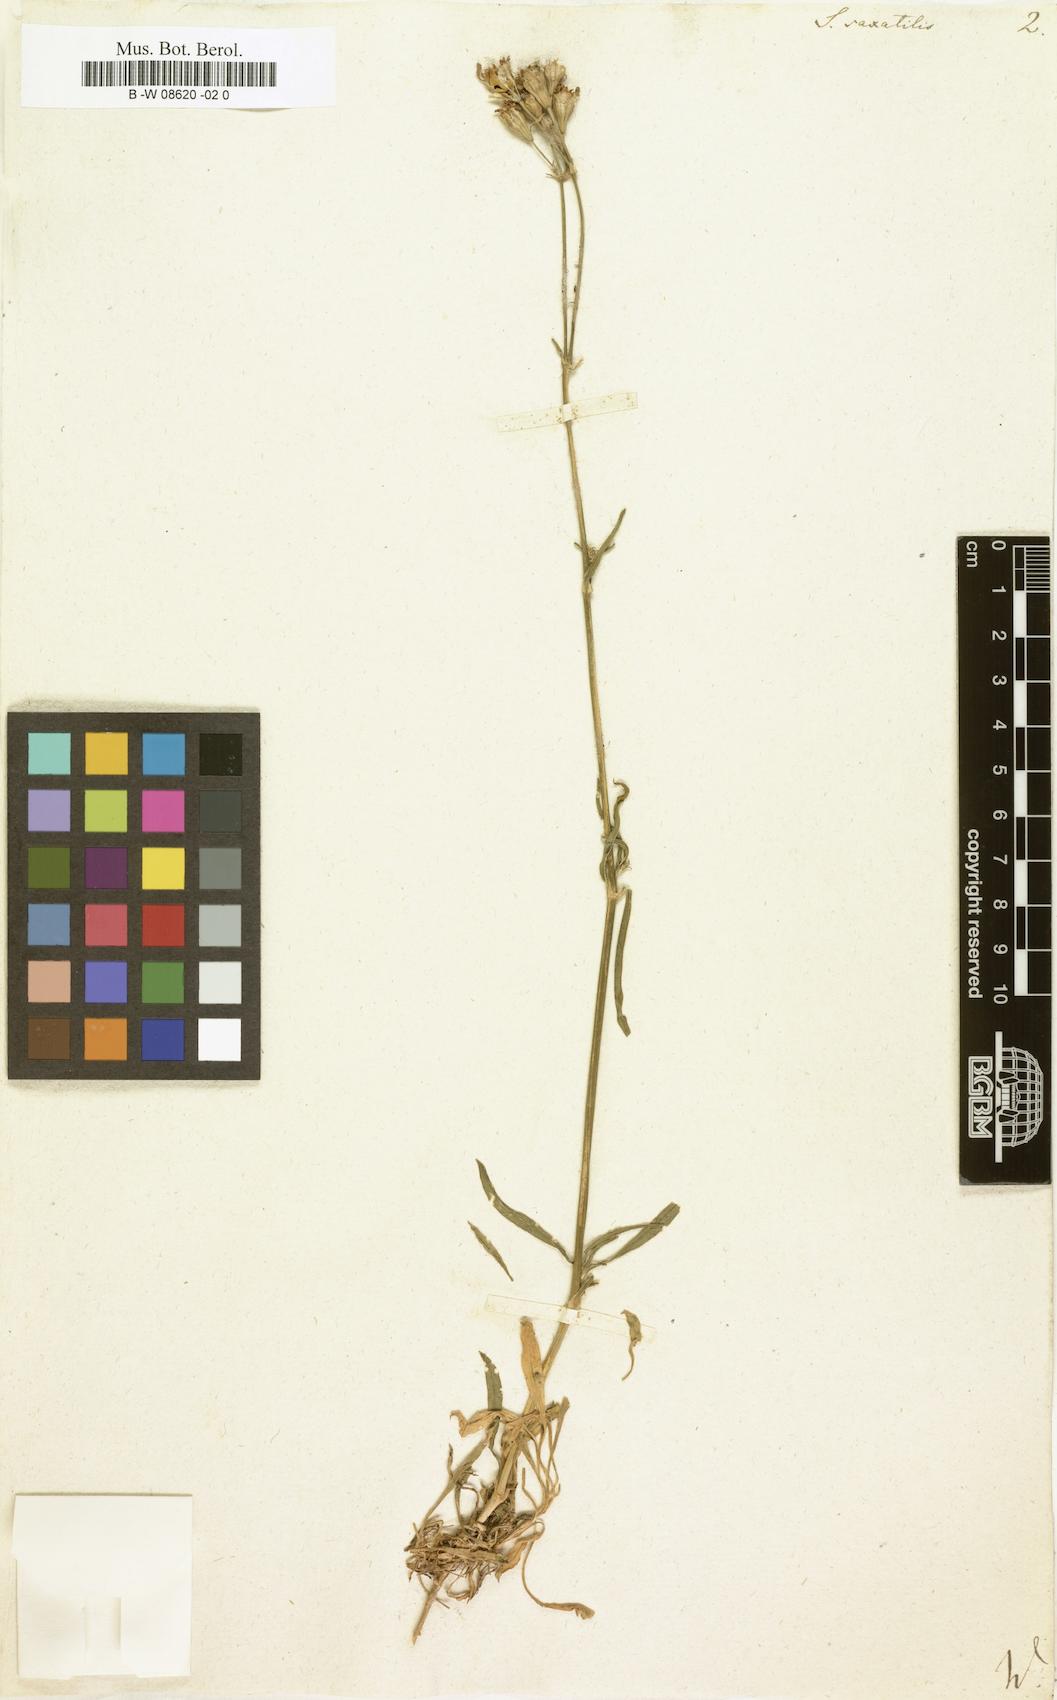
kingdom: Plantae
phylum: Tracheophyta
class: Magnoliopsida
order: Caryophyllales
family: Caryophyllaceae
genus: Silene
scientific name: Silene saxatilis
